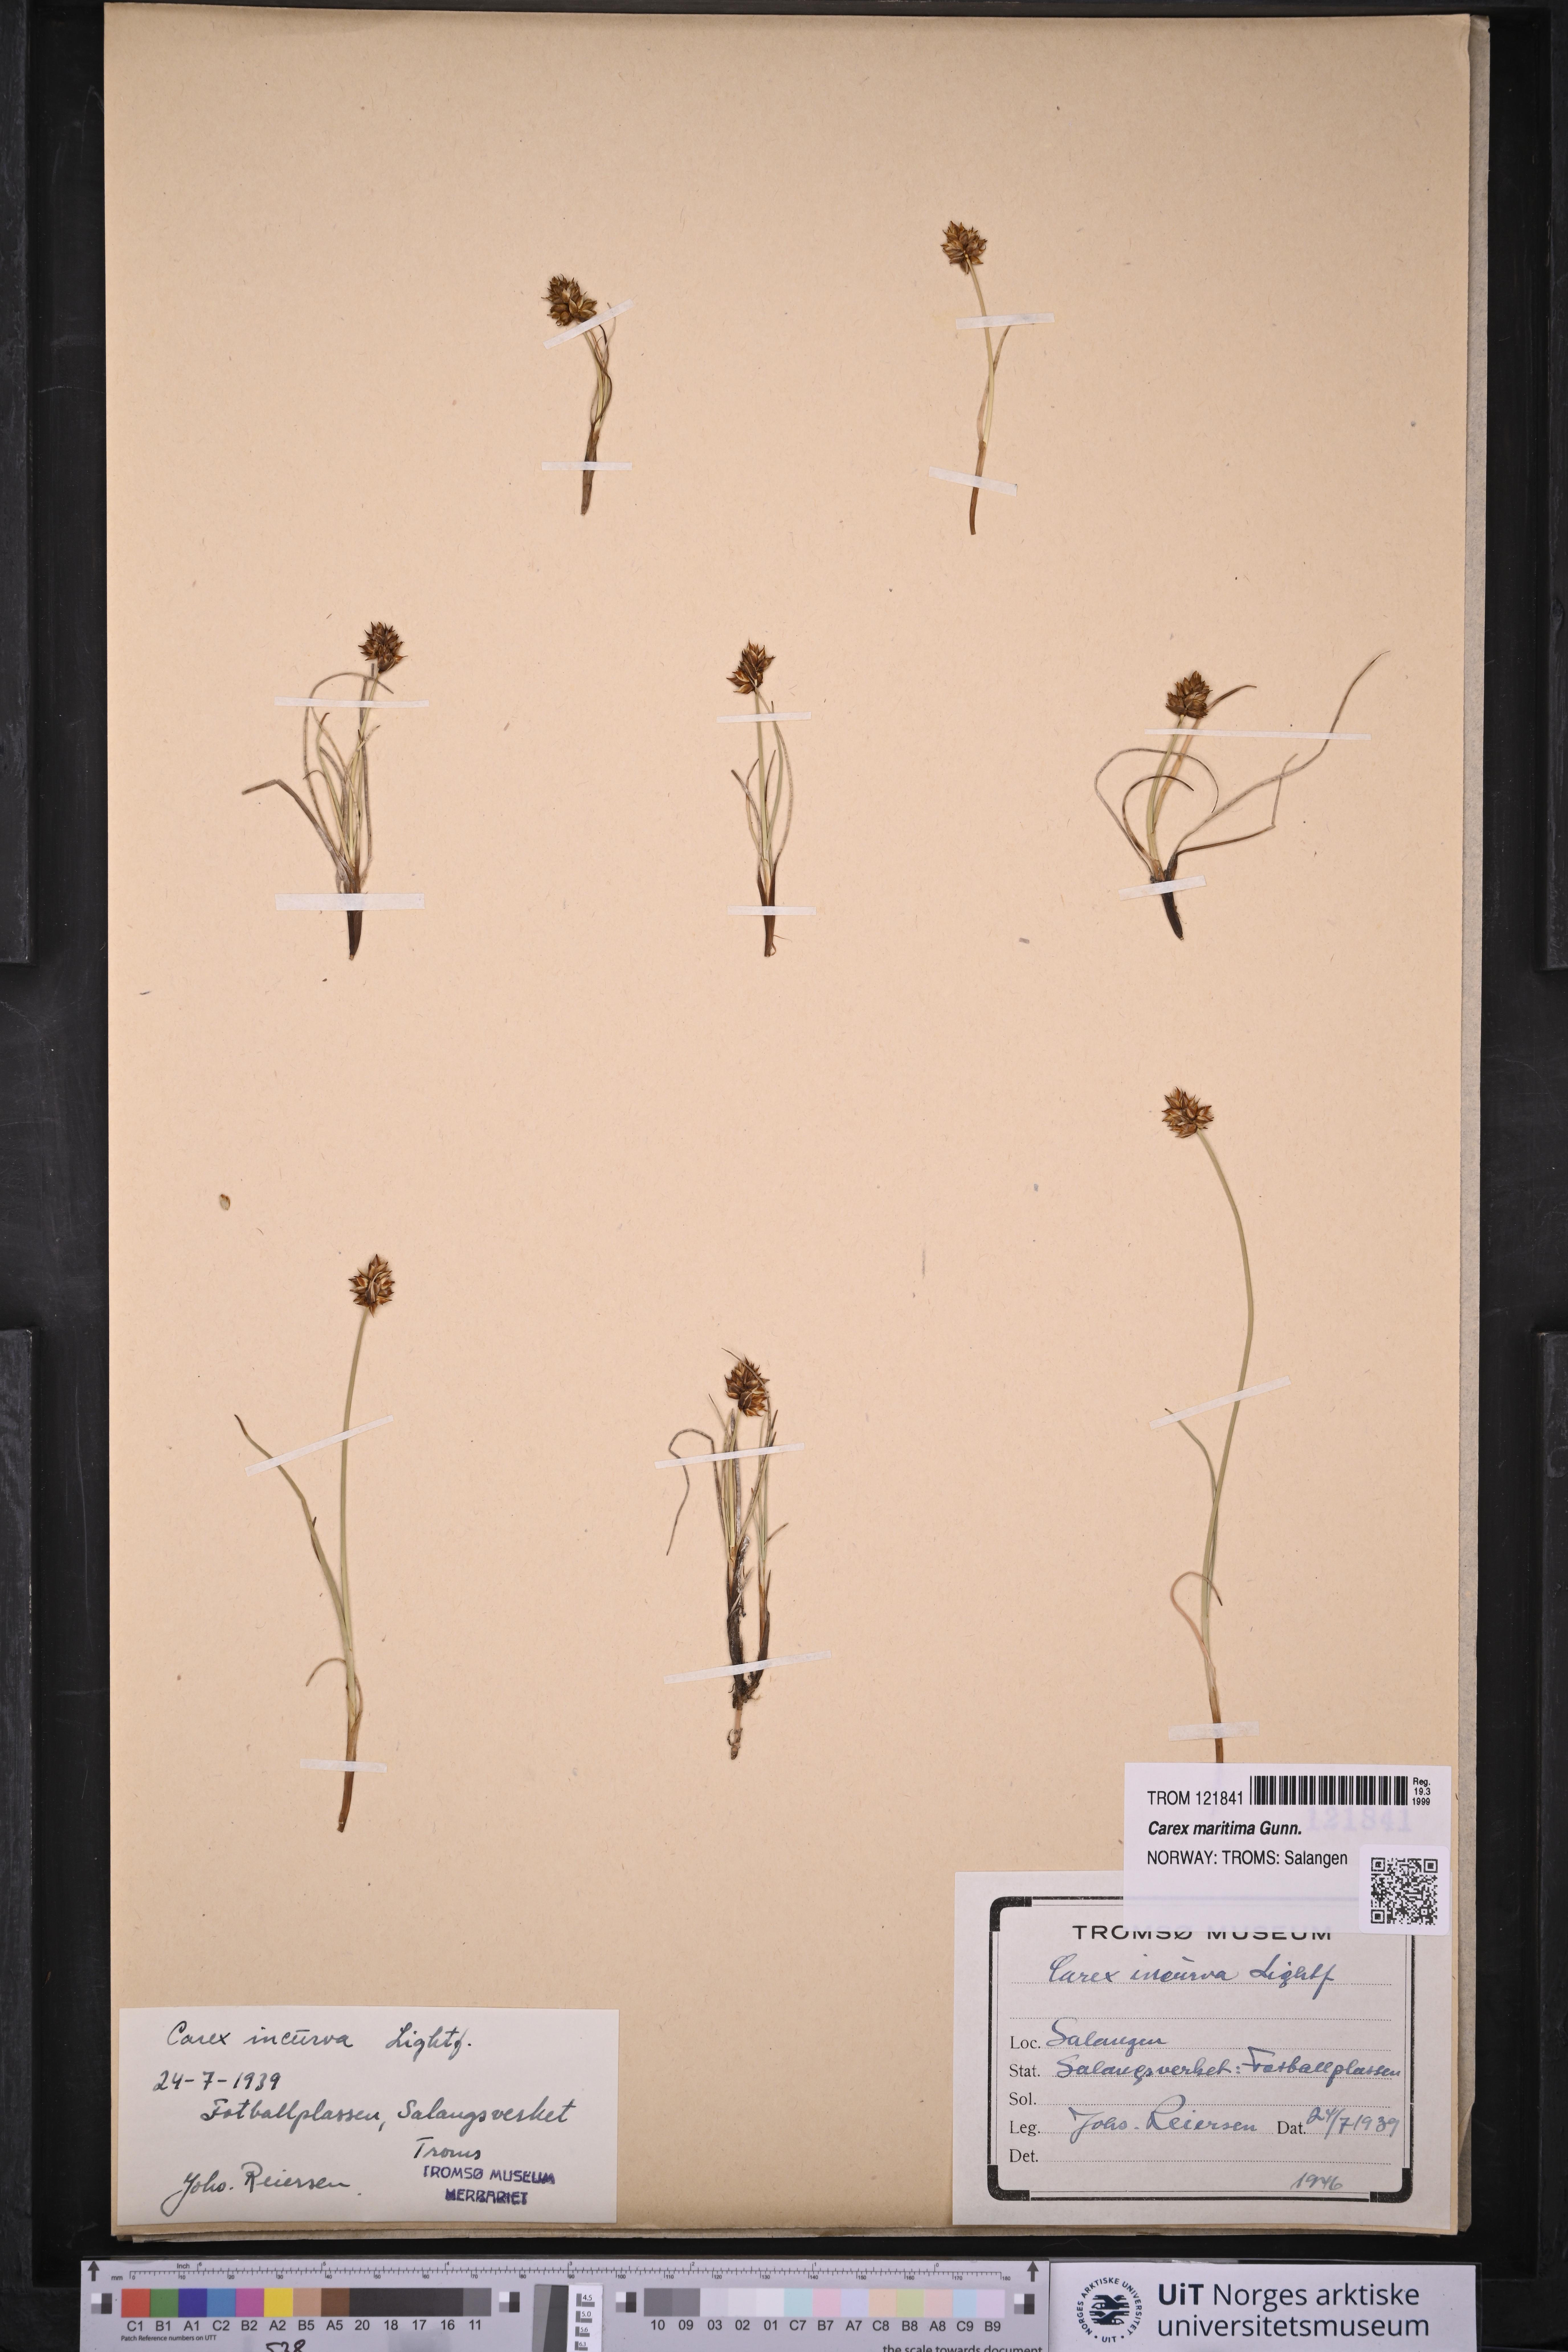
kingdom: Plantae
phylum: Tracheophyta
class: Liliopsida
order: Poales
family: Cyperaceae
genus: Carex
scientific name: Carex maritima
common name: Curved sedge
